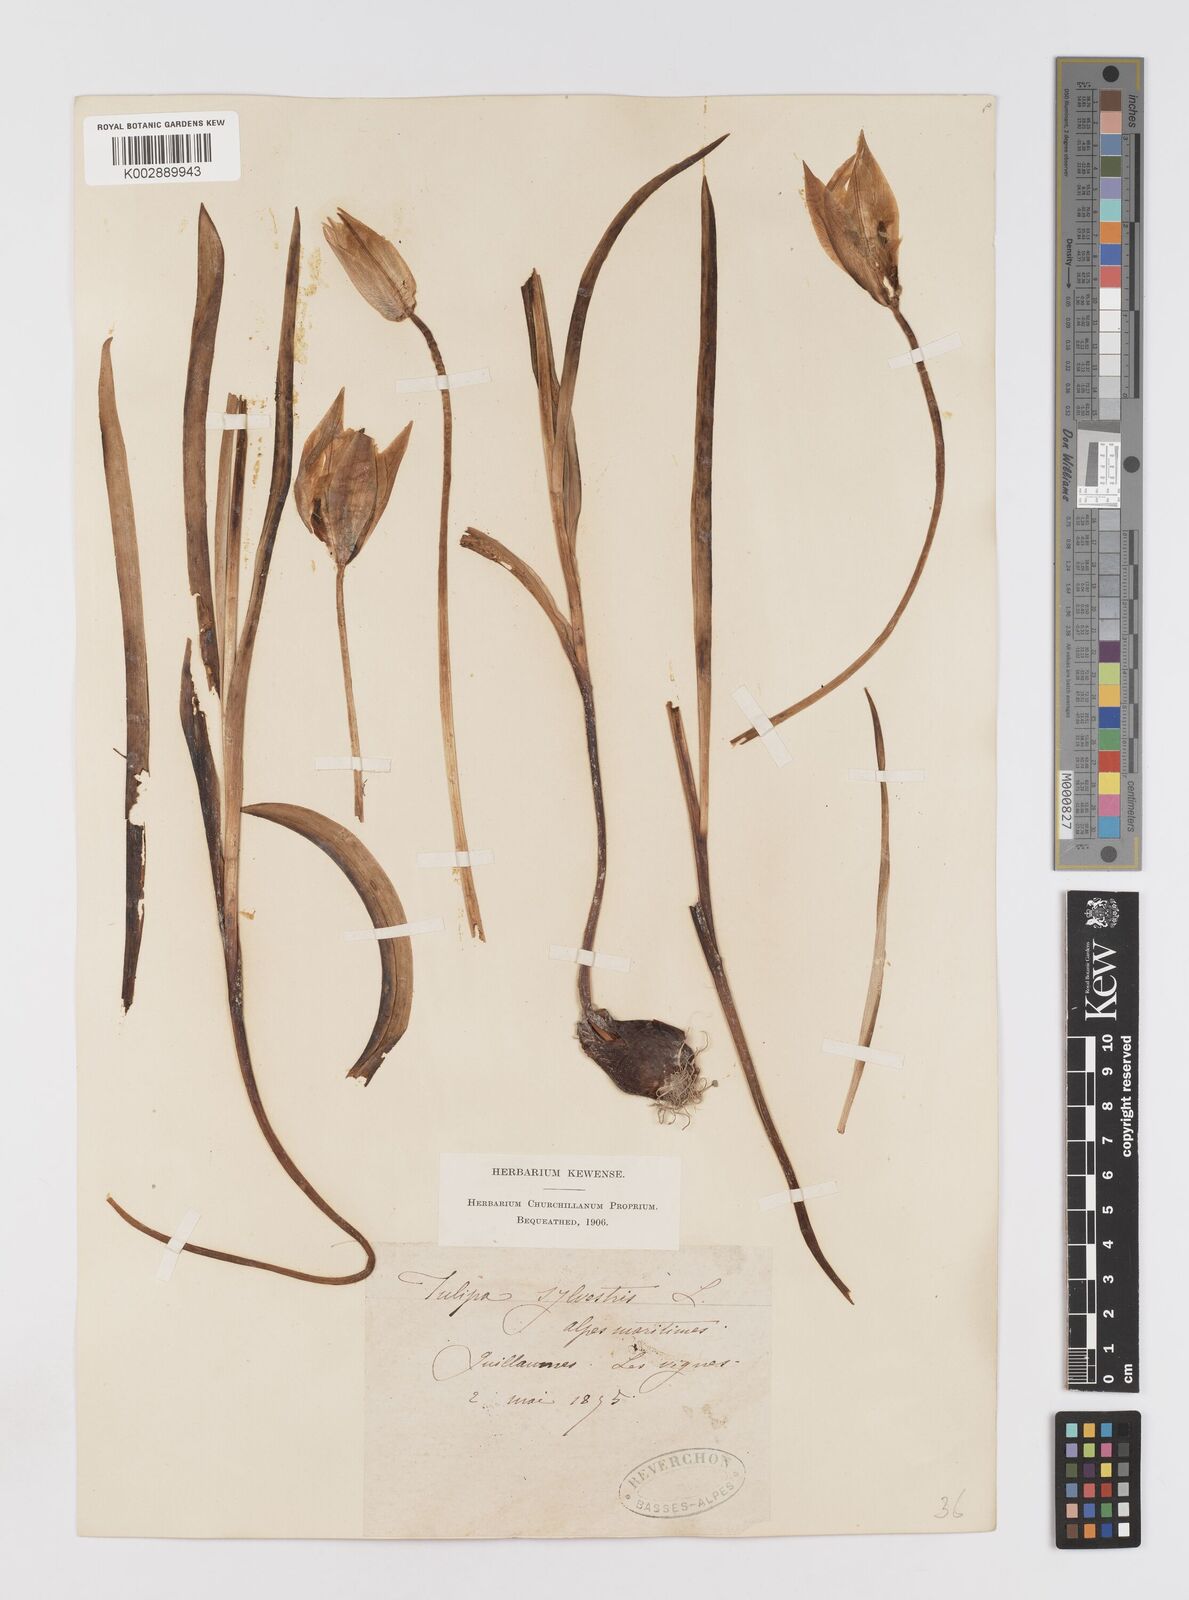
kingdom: Plantae
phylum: Tracheophyta
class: Liliopsida
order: Liliales
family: Liliaceae
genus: Tulipa
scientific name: Tulipa sylvestris
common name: Wild tulip
